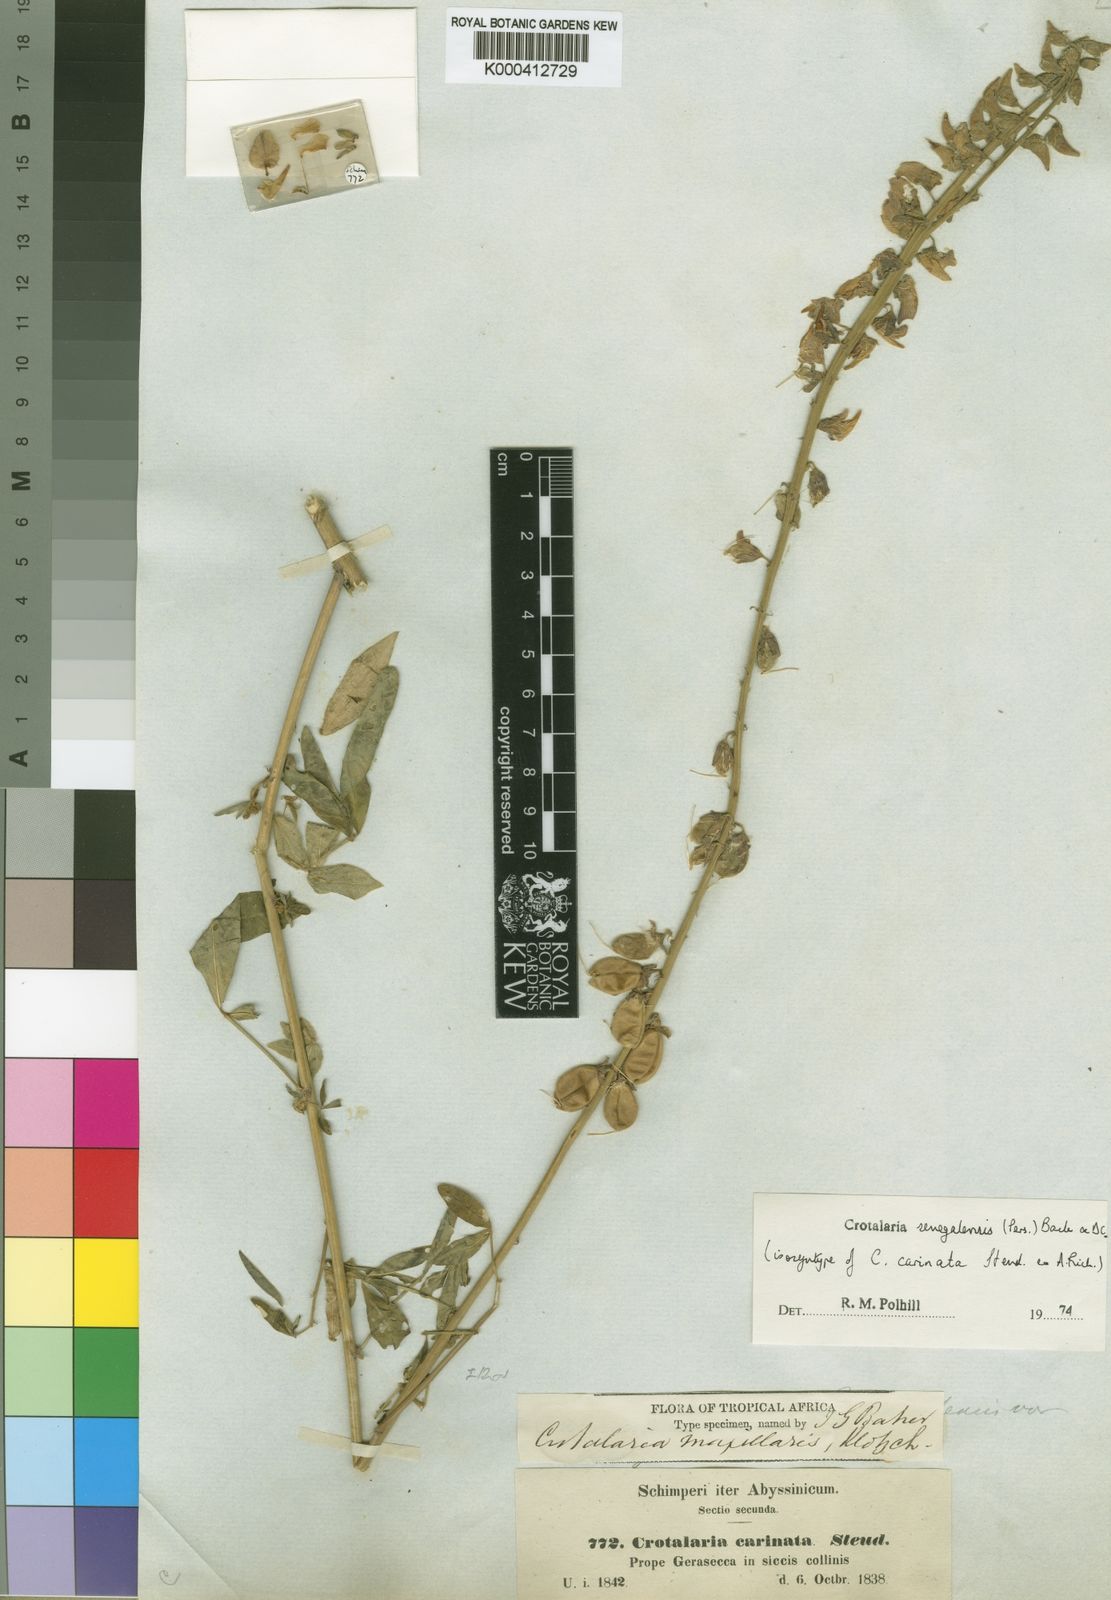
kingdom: Plantae
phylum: Tracheophyta
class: Magnoliopsida
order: Fabales
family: Fabaceae
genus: Crotalaria
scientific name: Crotalaria senegalensis
